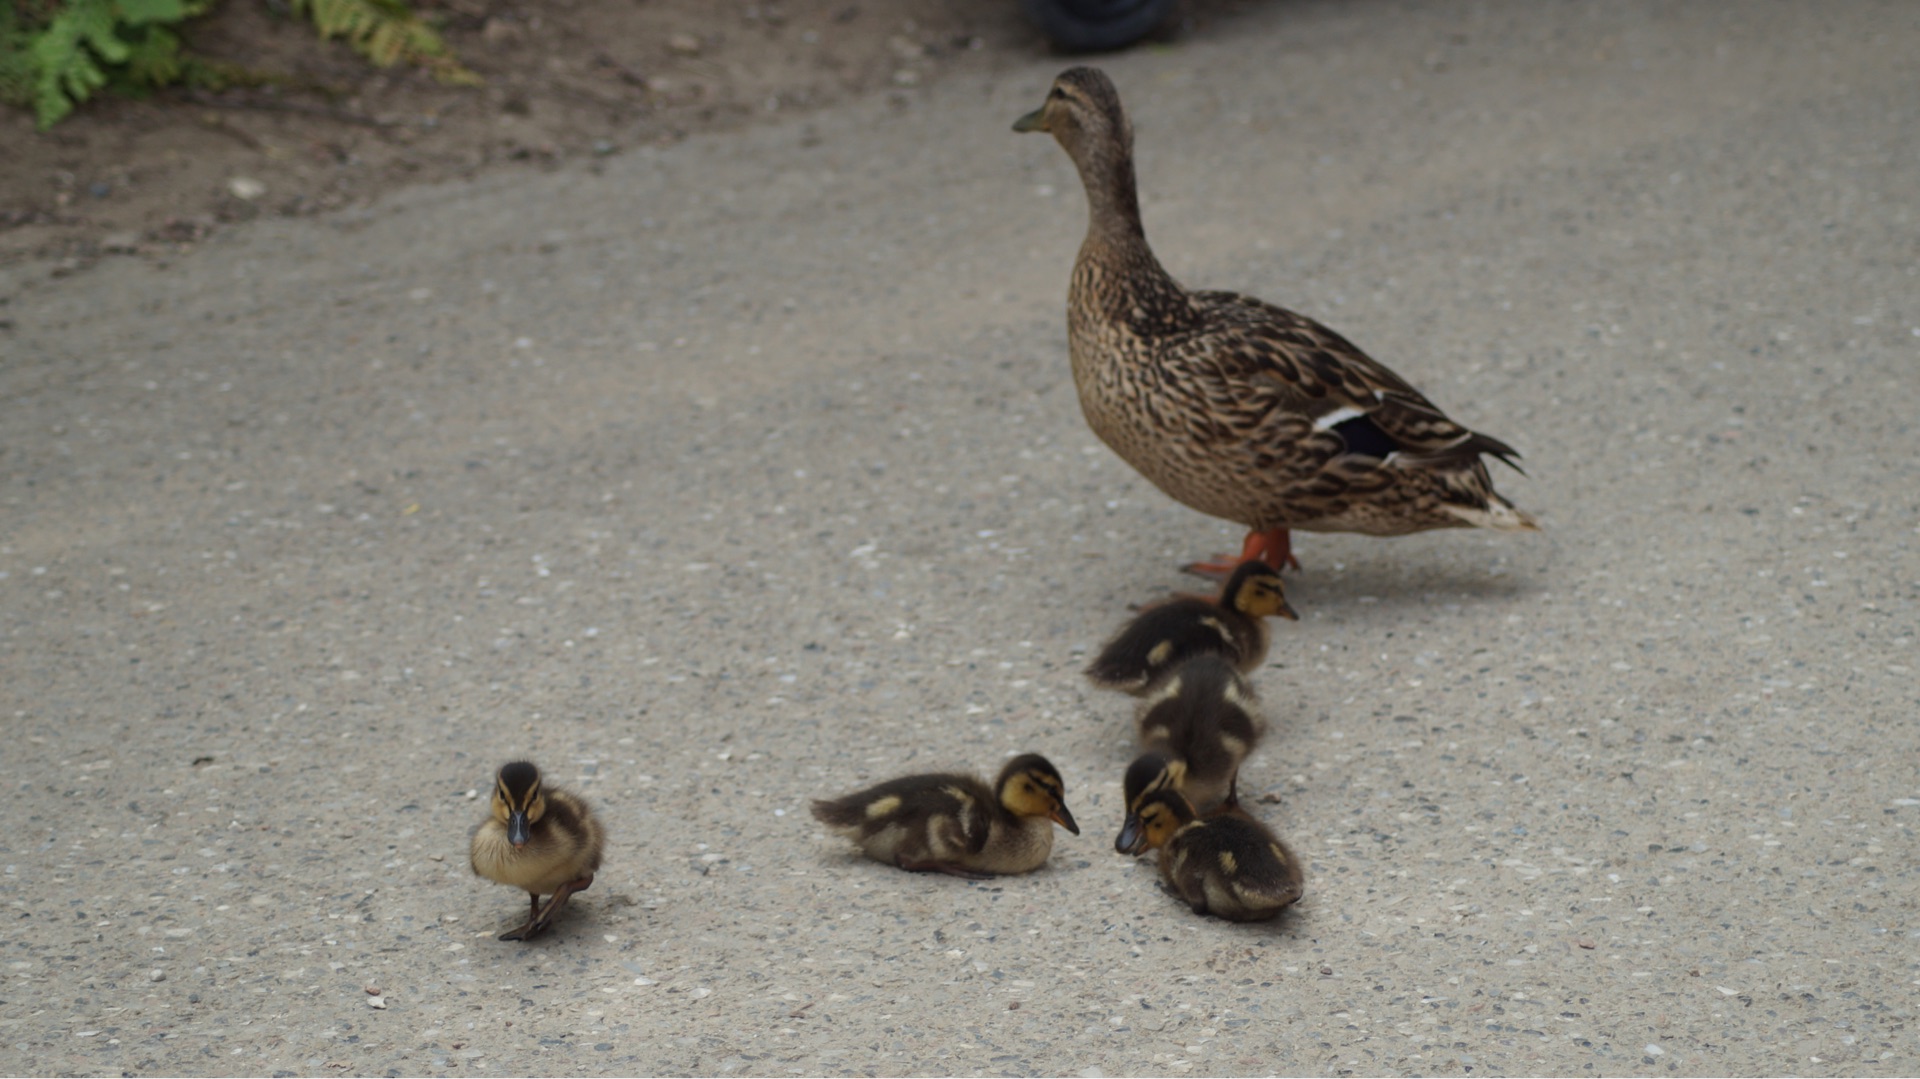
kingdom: Animalia
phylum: Chordata
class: Aves
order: Passeriformes
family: Hirundinidae
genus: Hirundo
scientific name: Hirundo rustica
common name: Landsvale
